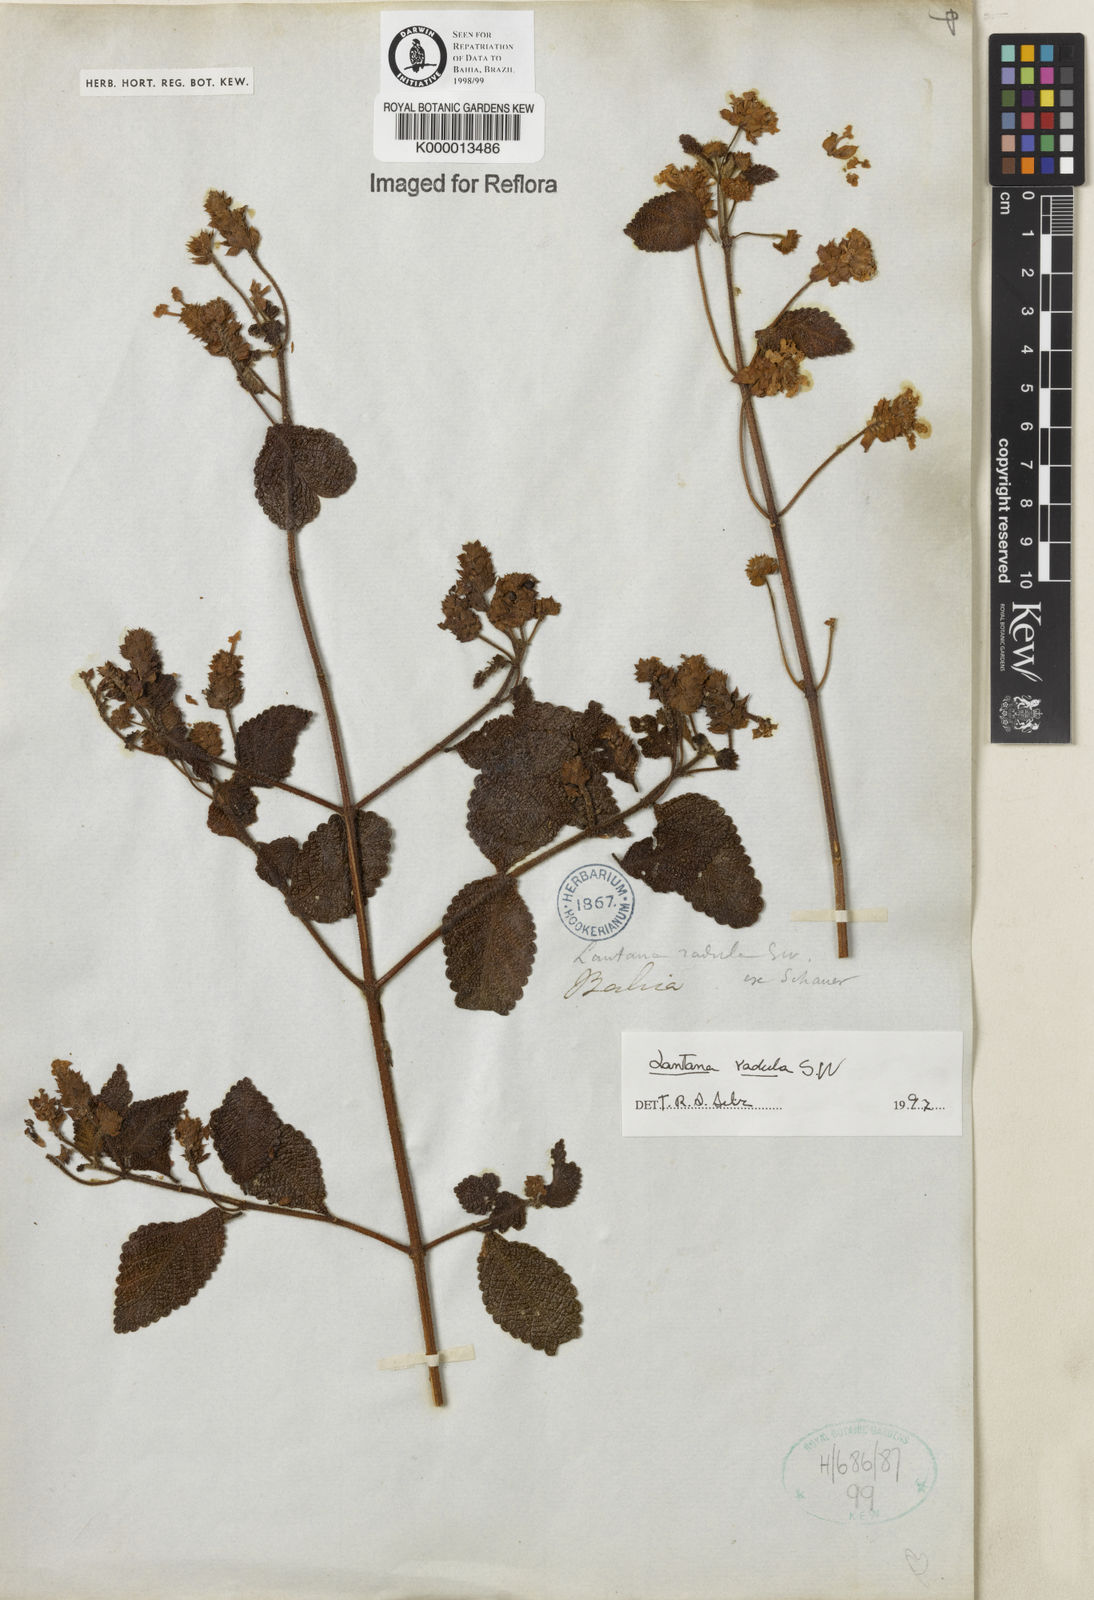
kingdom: Plantae
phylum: Tracheophyta
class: Magnoliopsida
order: Lamiales
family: Verbenaceae
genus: Lantana
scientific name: Lantana radula
